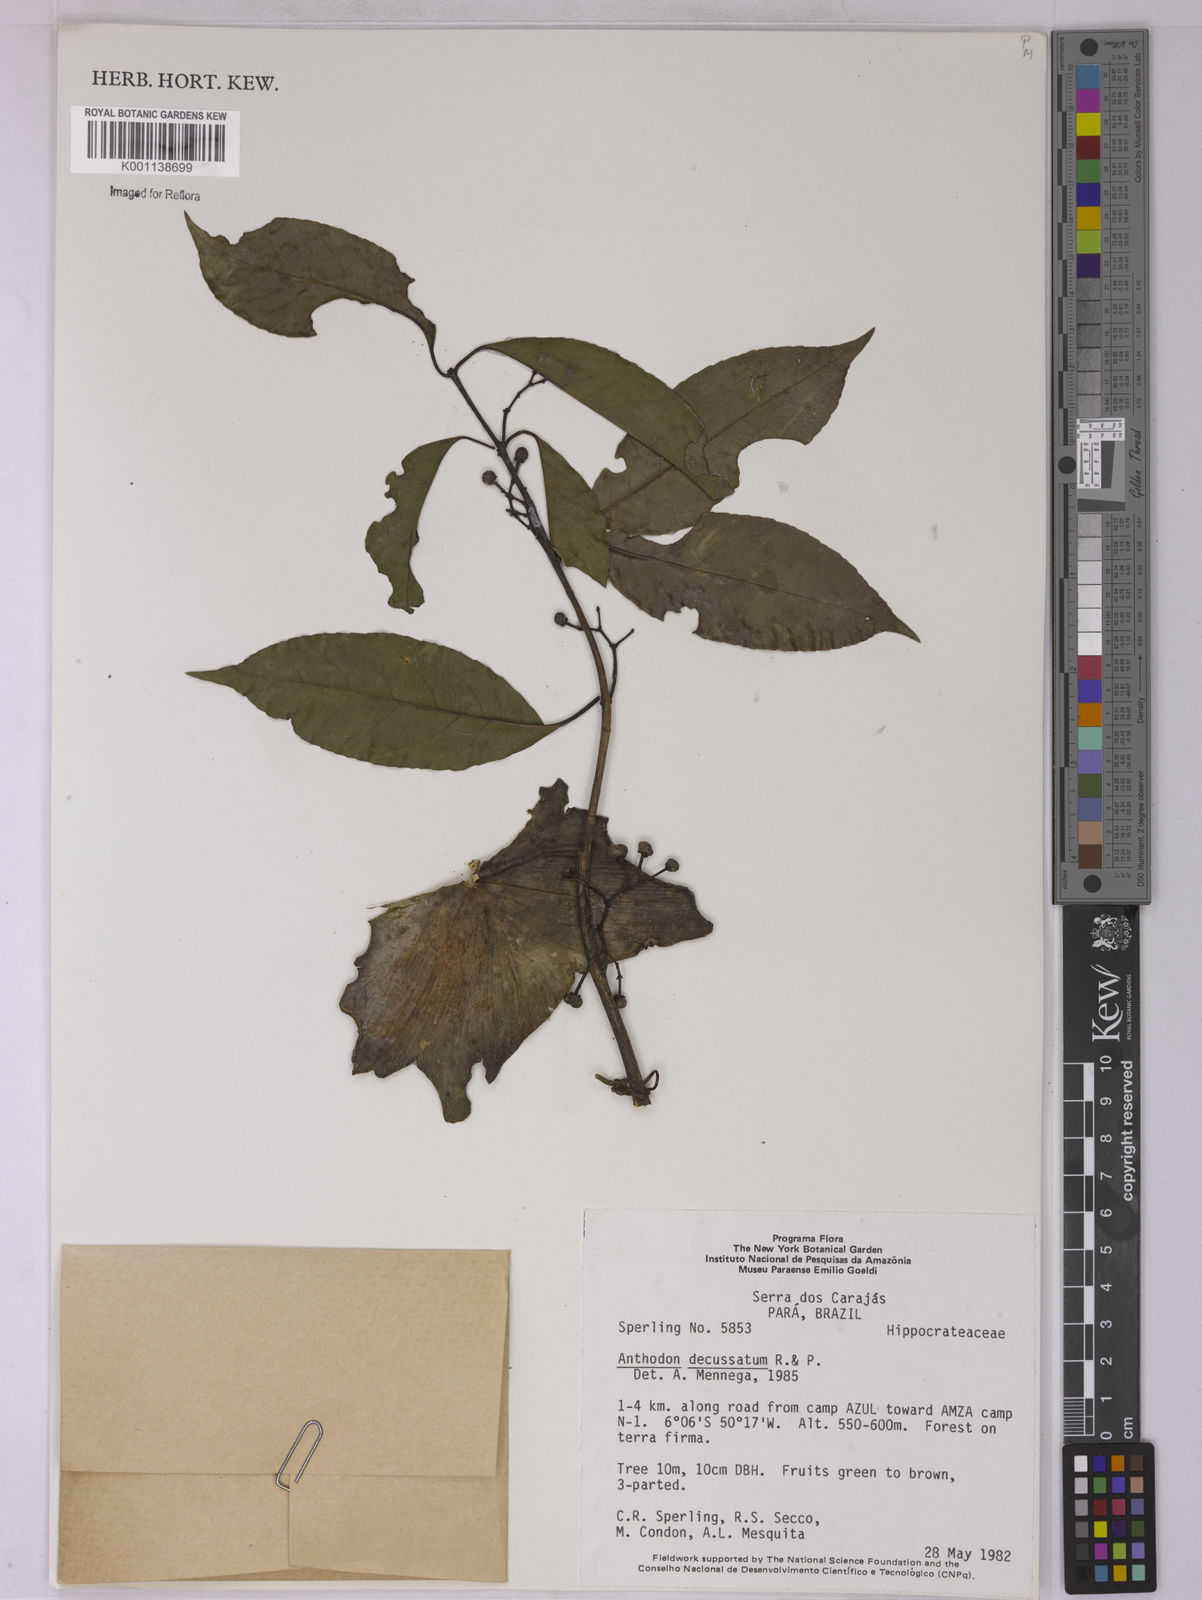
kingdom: Plantae
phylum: Tracheophyta
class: Magnoliopsida
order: Celastrales
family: Celastraceae
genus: Anthodon
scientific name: Anthodon decussatum
